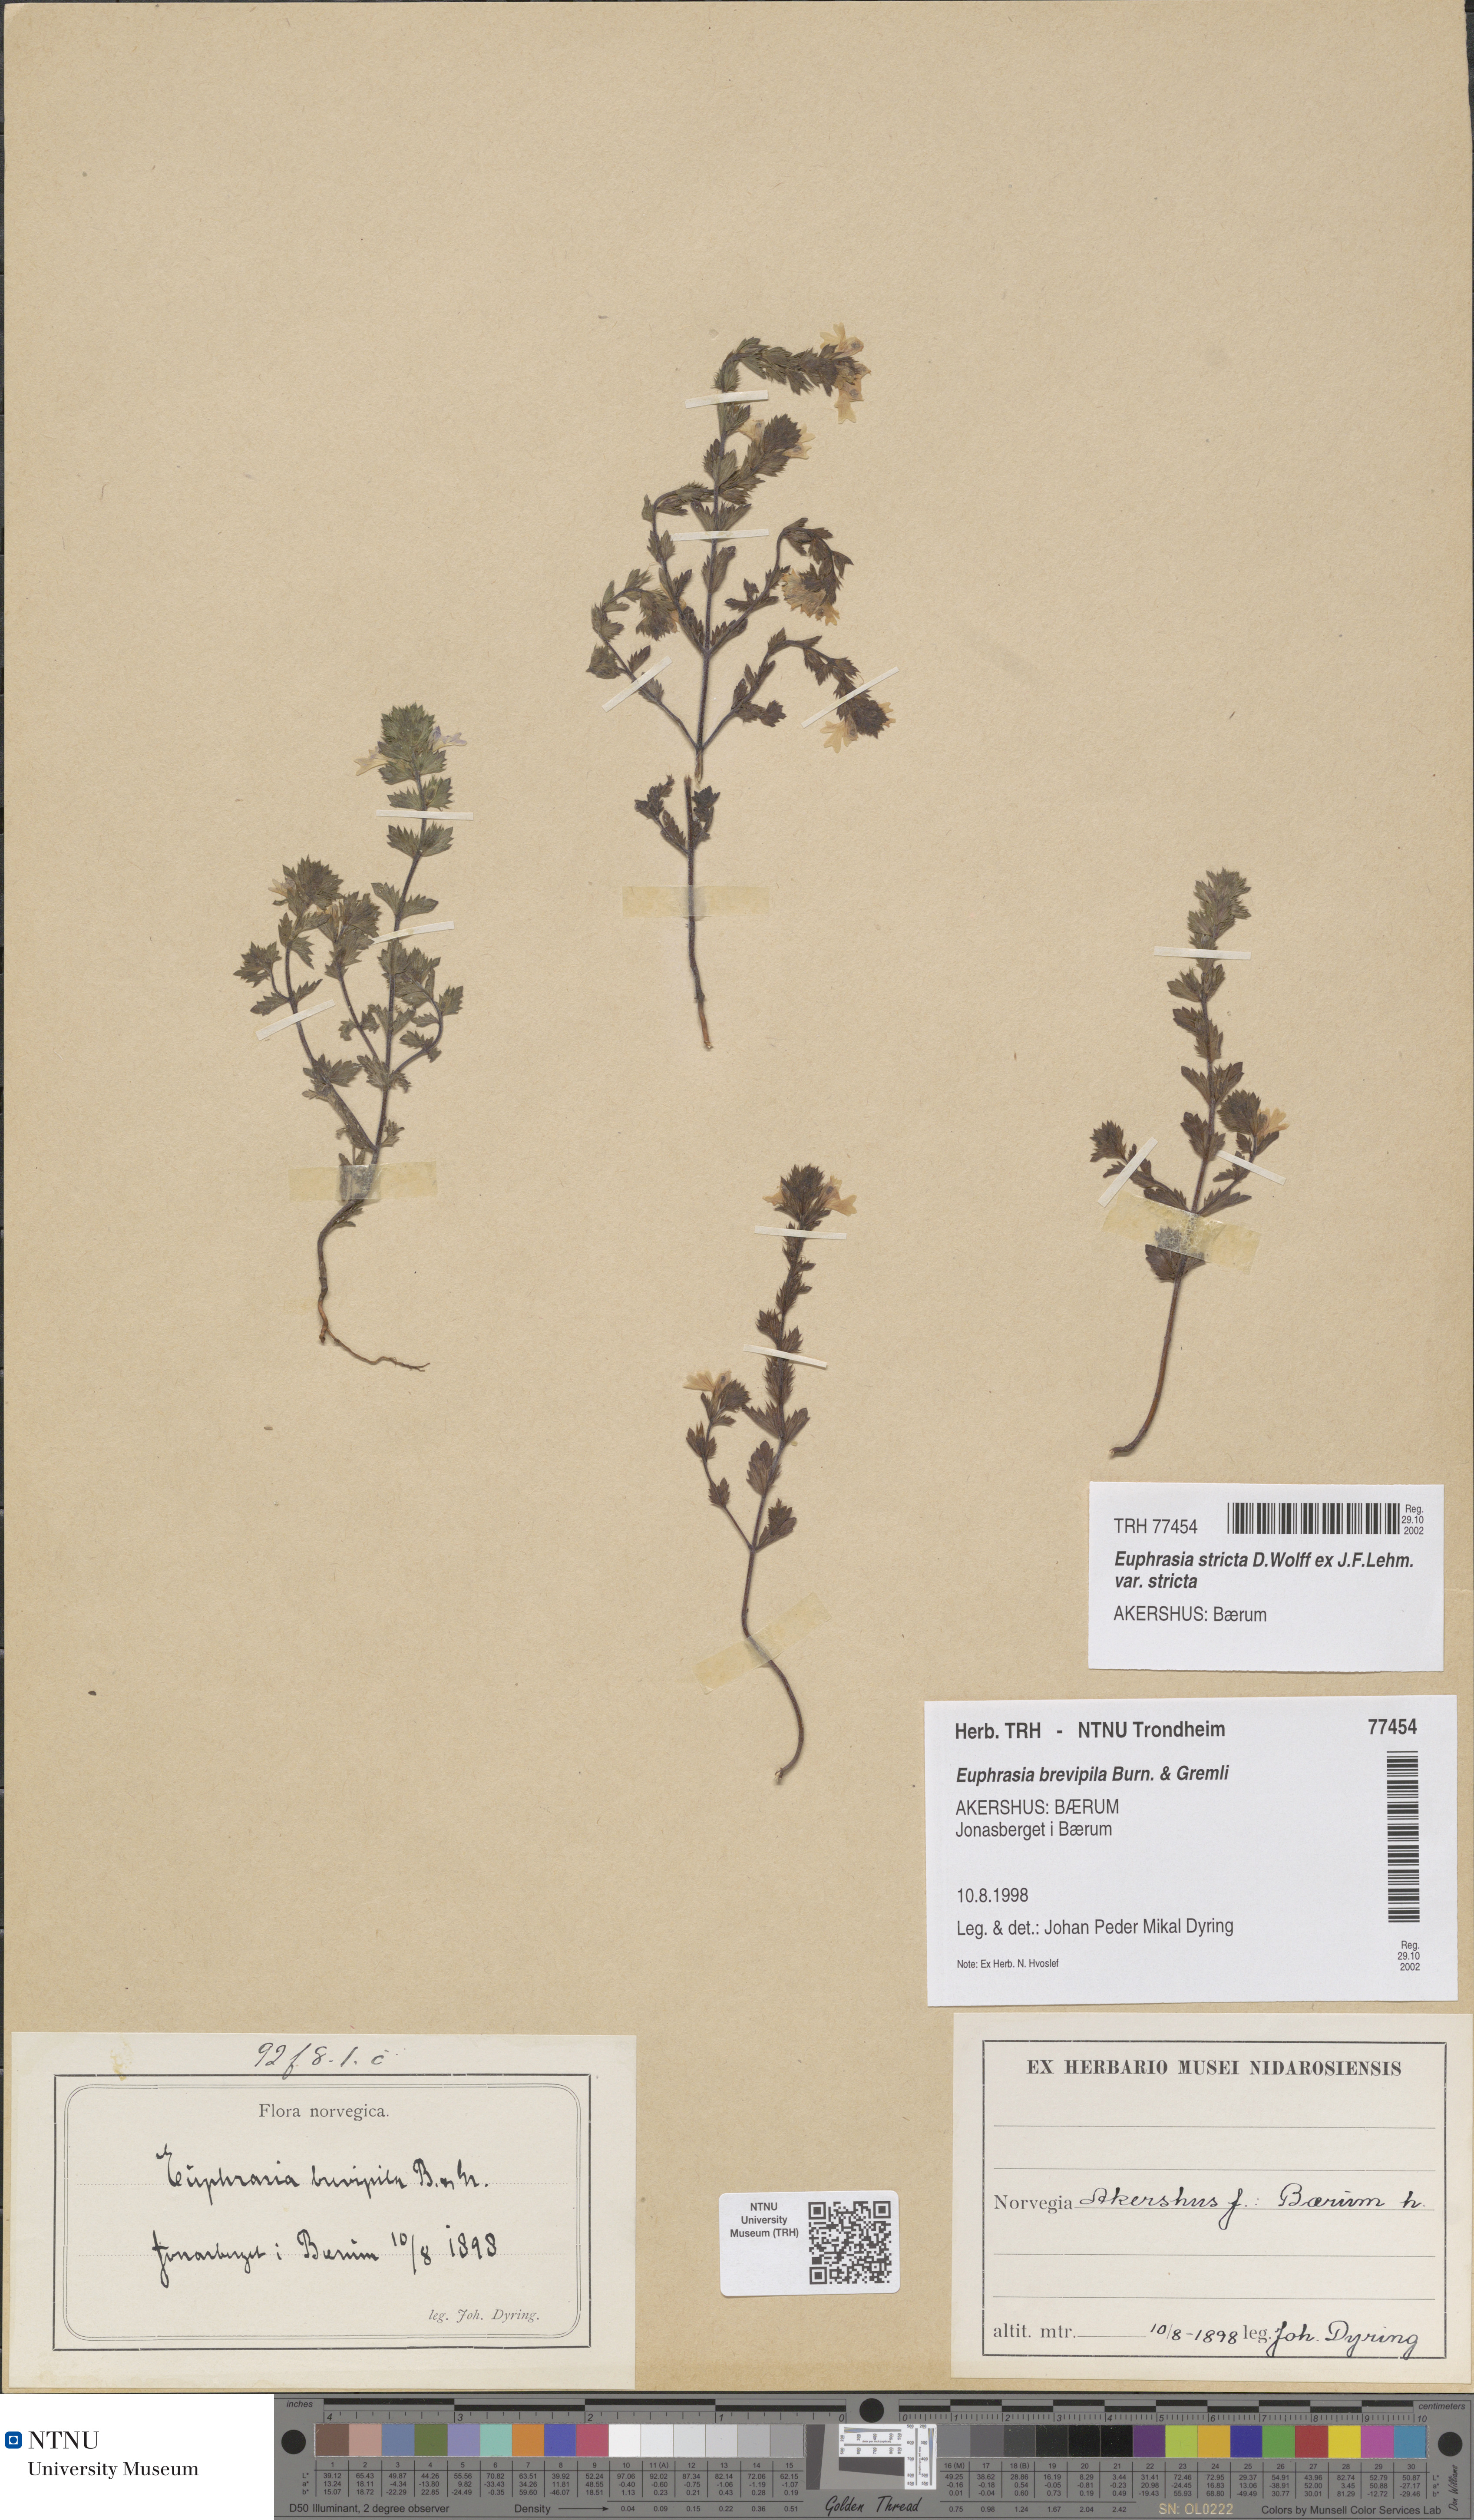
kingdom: Plantae
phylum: Tracheophyta
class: Magnoliopsida
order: Lamiales
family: Orobanchaceae
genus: Euphrasia
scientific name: Euphrasia vernalis
